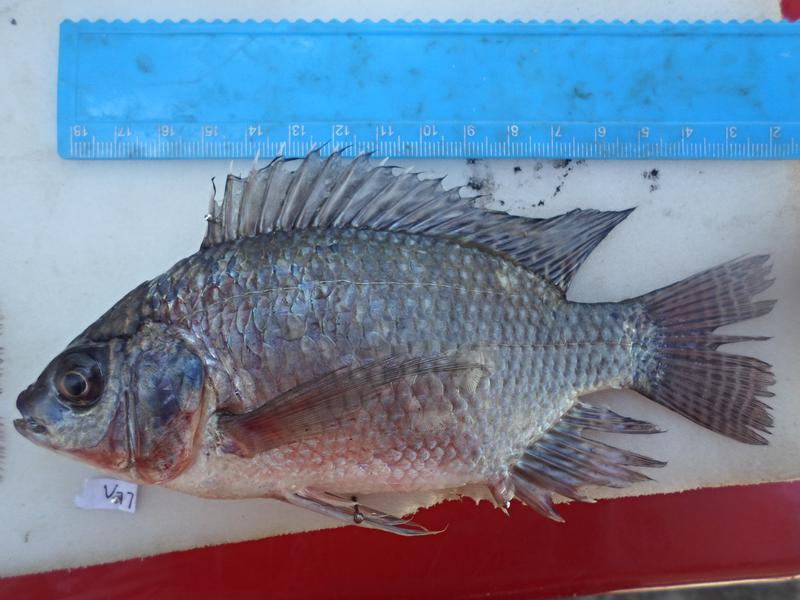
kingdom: Animalia
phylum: Chordata
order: Perciformes
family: Cichlidae
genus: Oreochromis
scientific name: Oreochromis niloticus
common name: Nile tilapia
